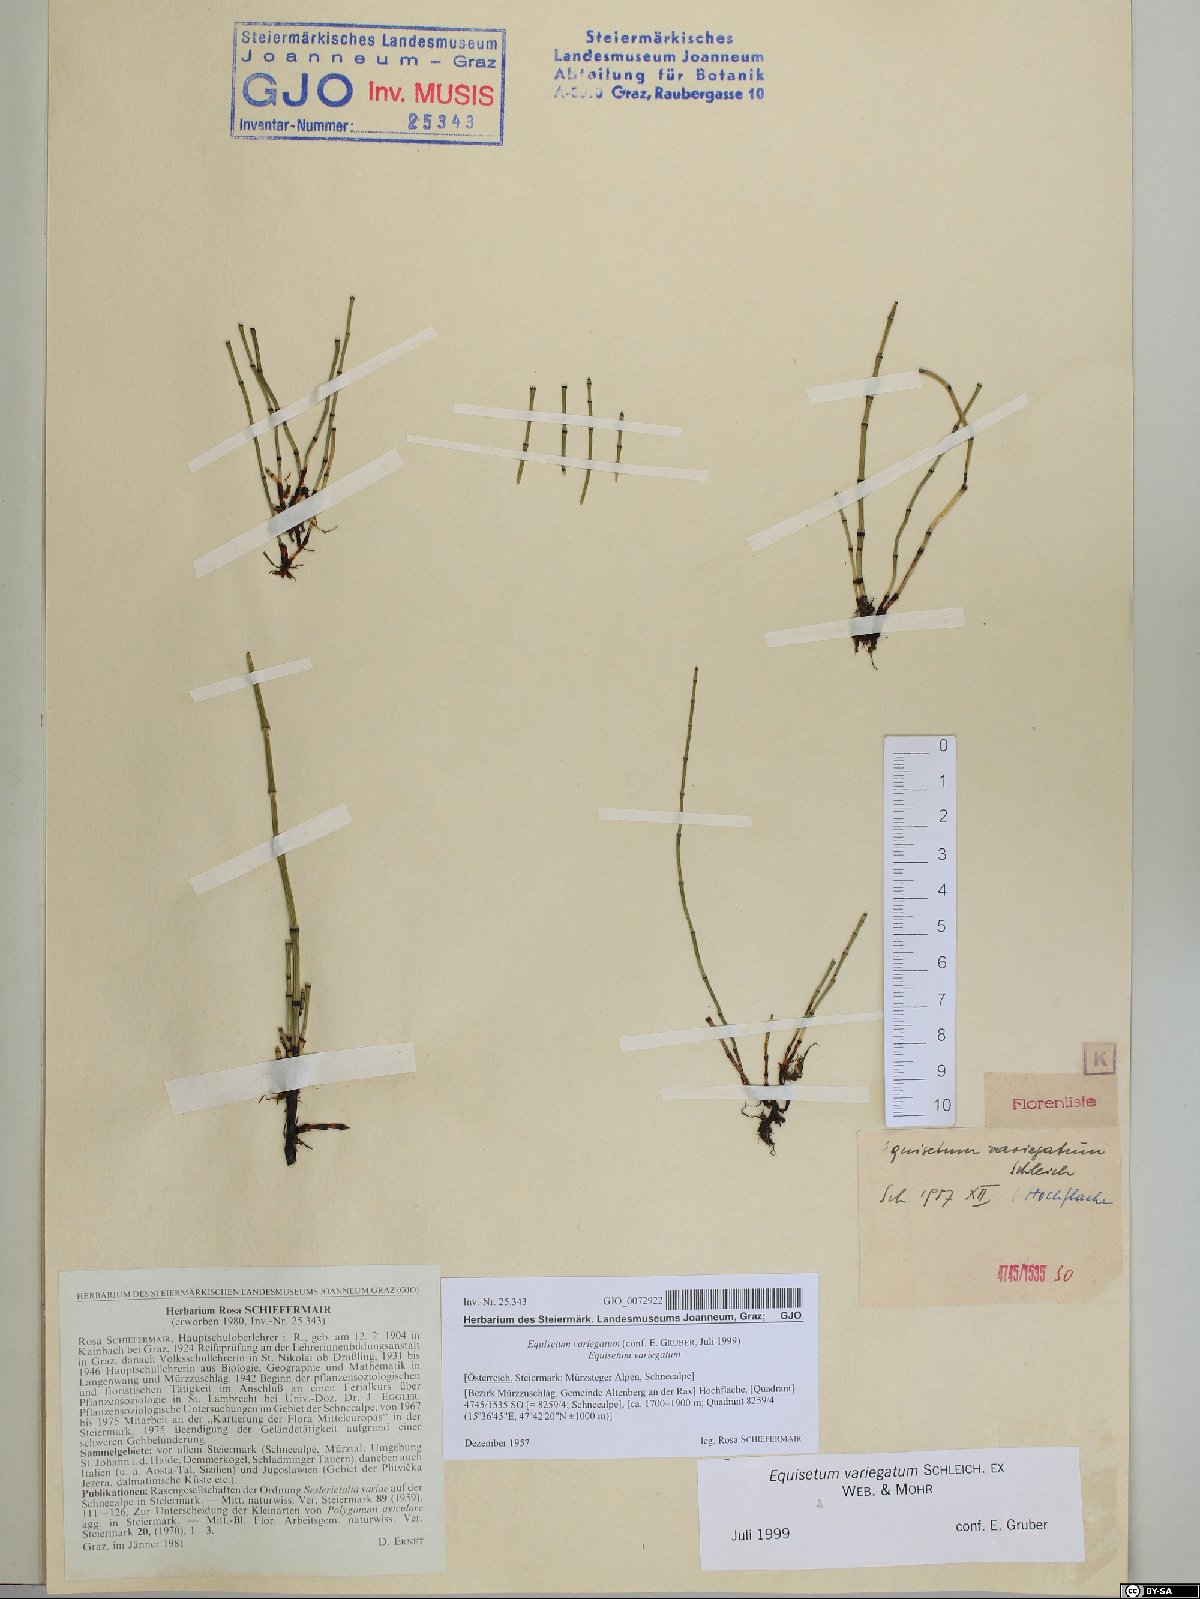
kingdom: Plantae
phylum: Tracheophyta
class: Polypodiopsida
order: Equisetales
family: Equisetaceae
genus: Equisetum
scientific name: Equisetum variegatum
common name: Variegated horsetail
